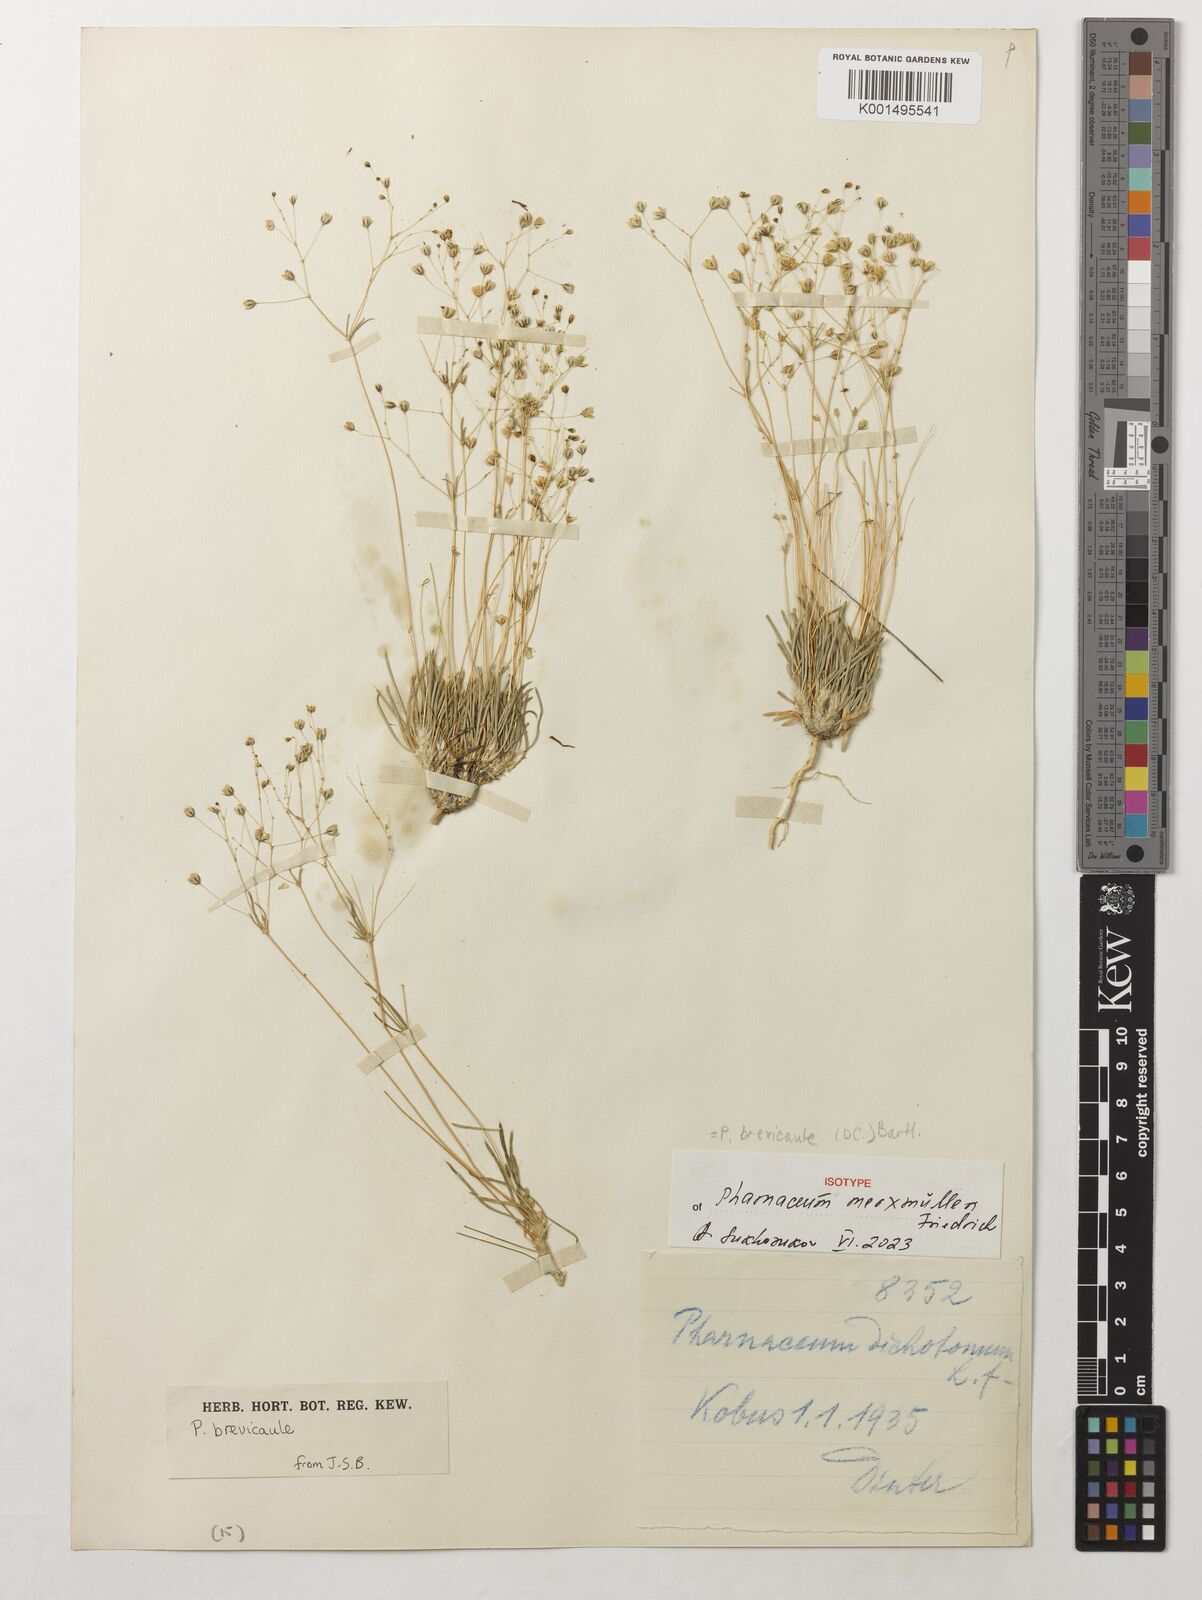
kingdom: Plantae
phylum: Tracheophyta
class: Magnoliopsida
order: Caryophyllales
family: Molluginaceae
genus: Pharnaceum
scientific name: Pharnaceum brevicaule
